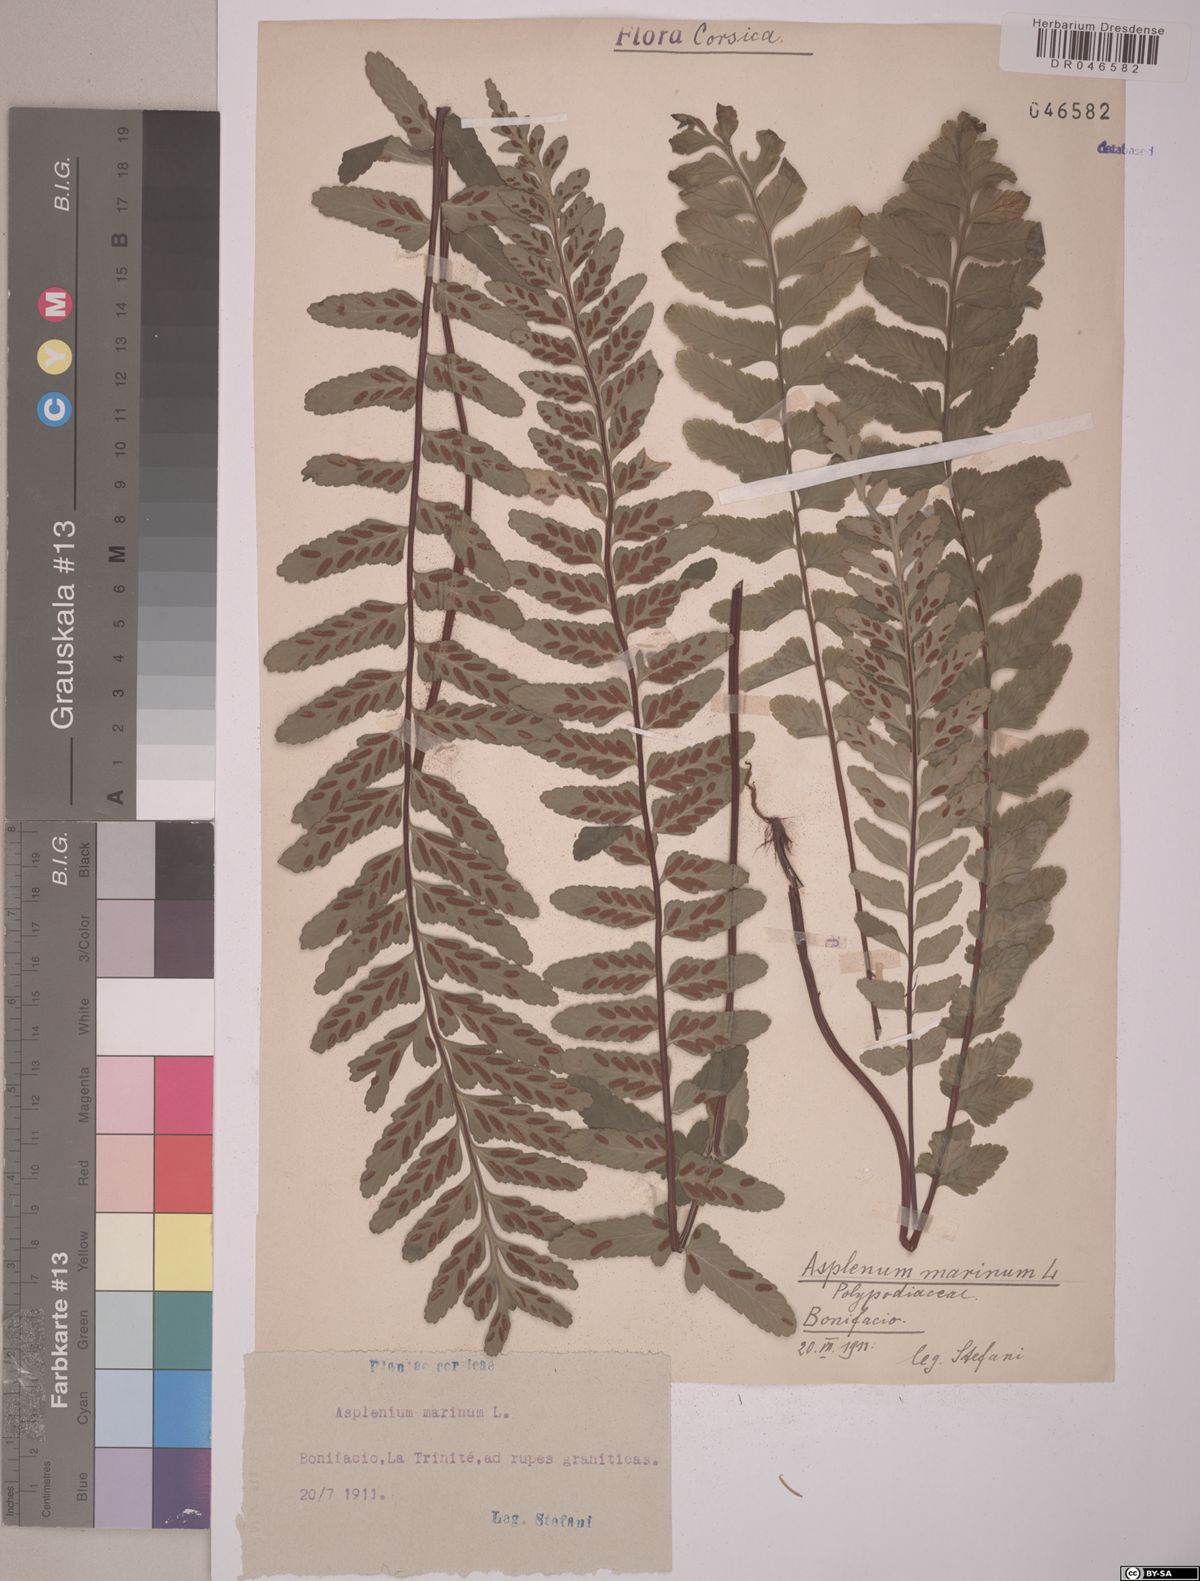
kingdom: Plantae
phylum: Tracheophyta
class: Polypodiopsida
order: Polypodiales
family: Aspleniaceae
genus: Asplenium
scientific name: Asplenium marinum
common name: Sea spleenwort
